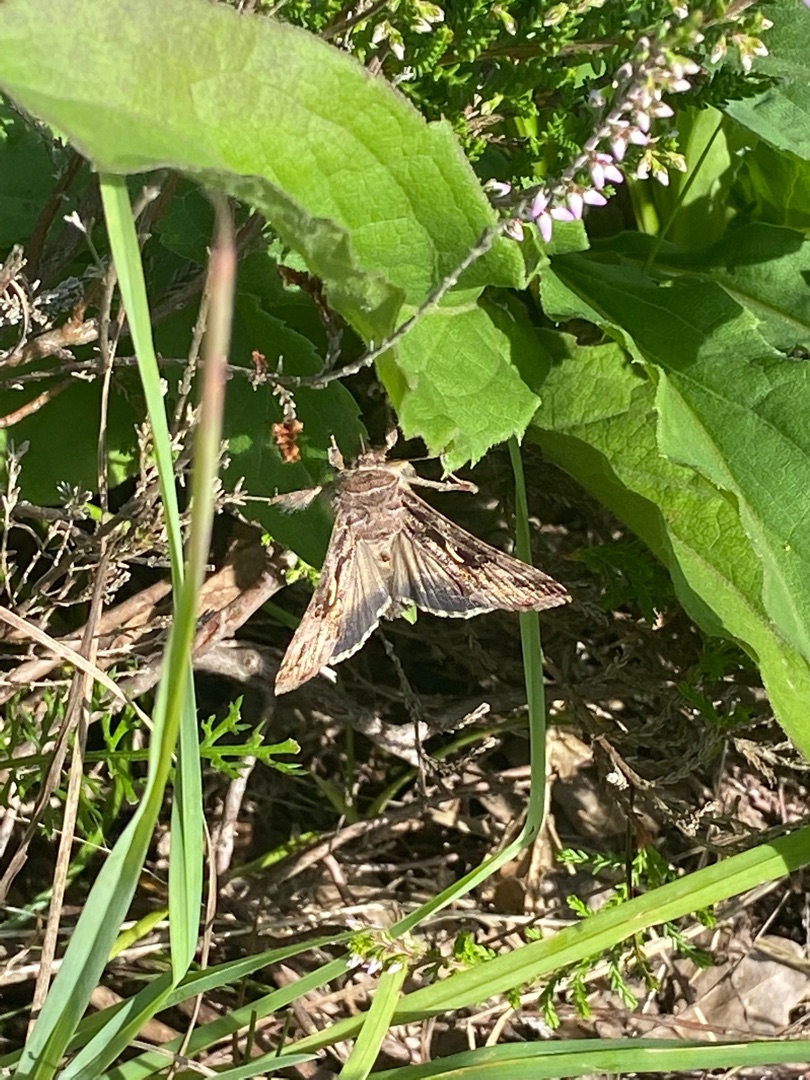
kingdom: Animalia
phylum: Arthropoda
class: Insecta
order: Lepidoptera
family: Noctuidae
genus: Autographa
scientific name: Autographa gamma
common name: Gammaugle
